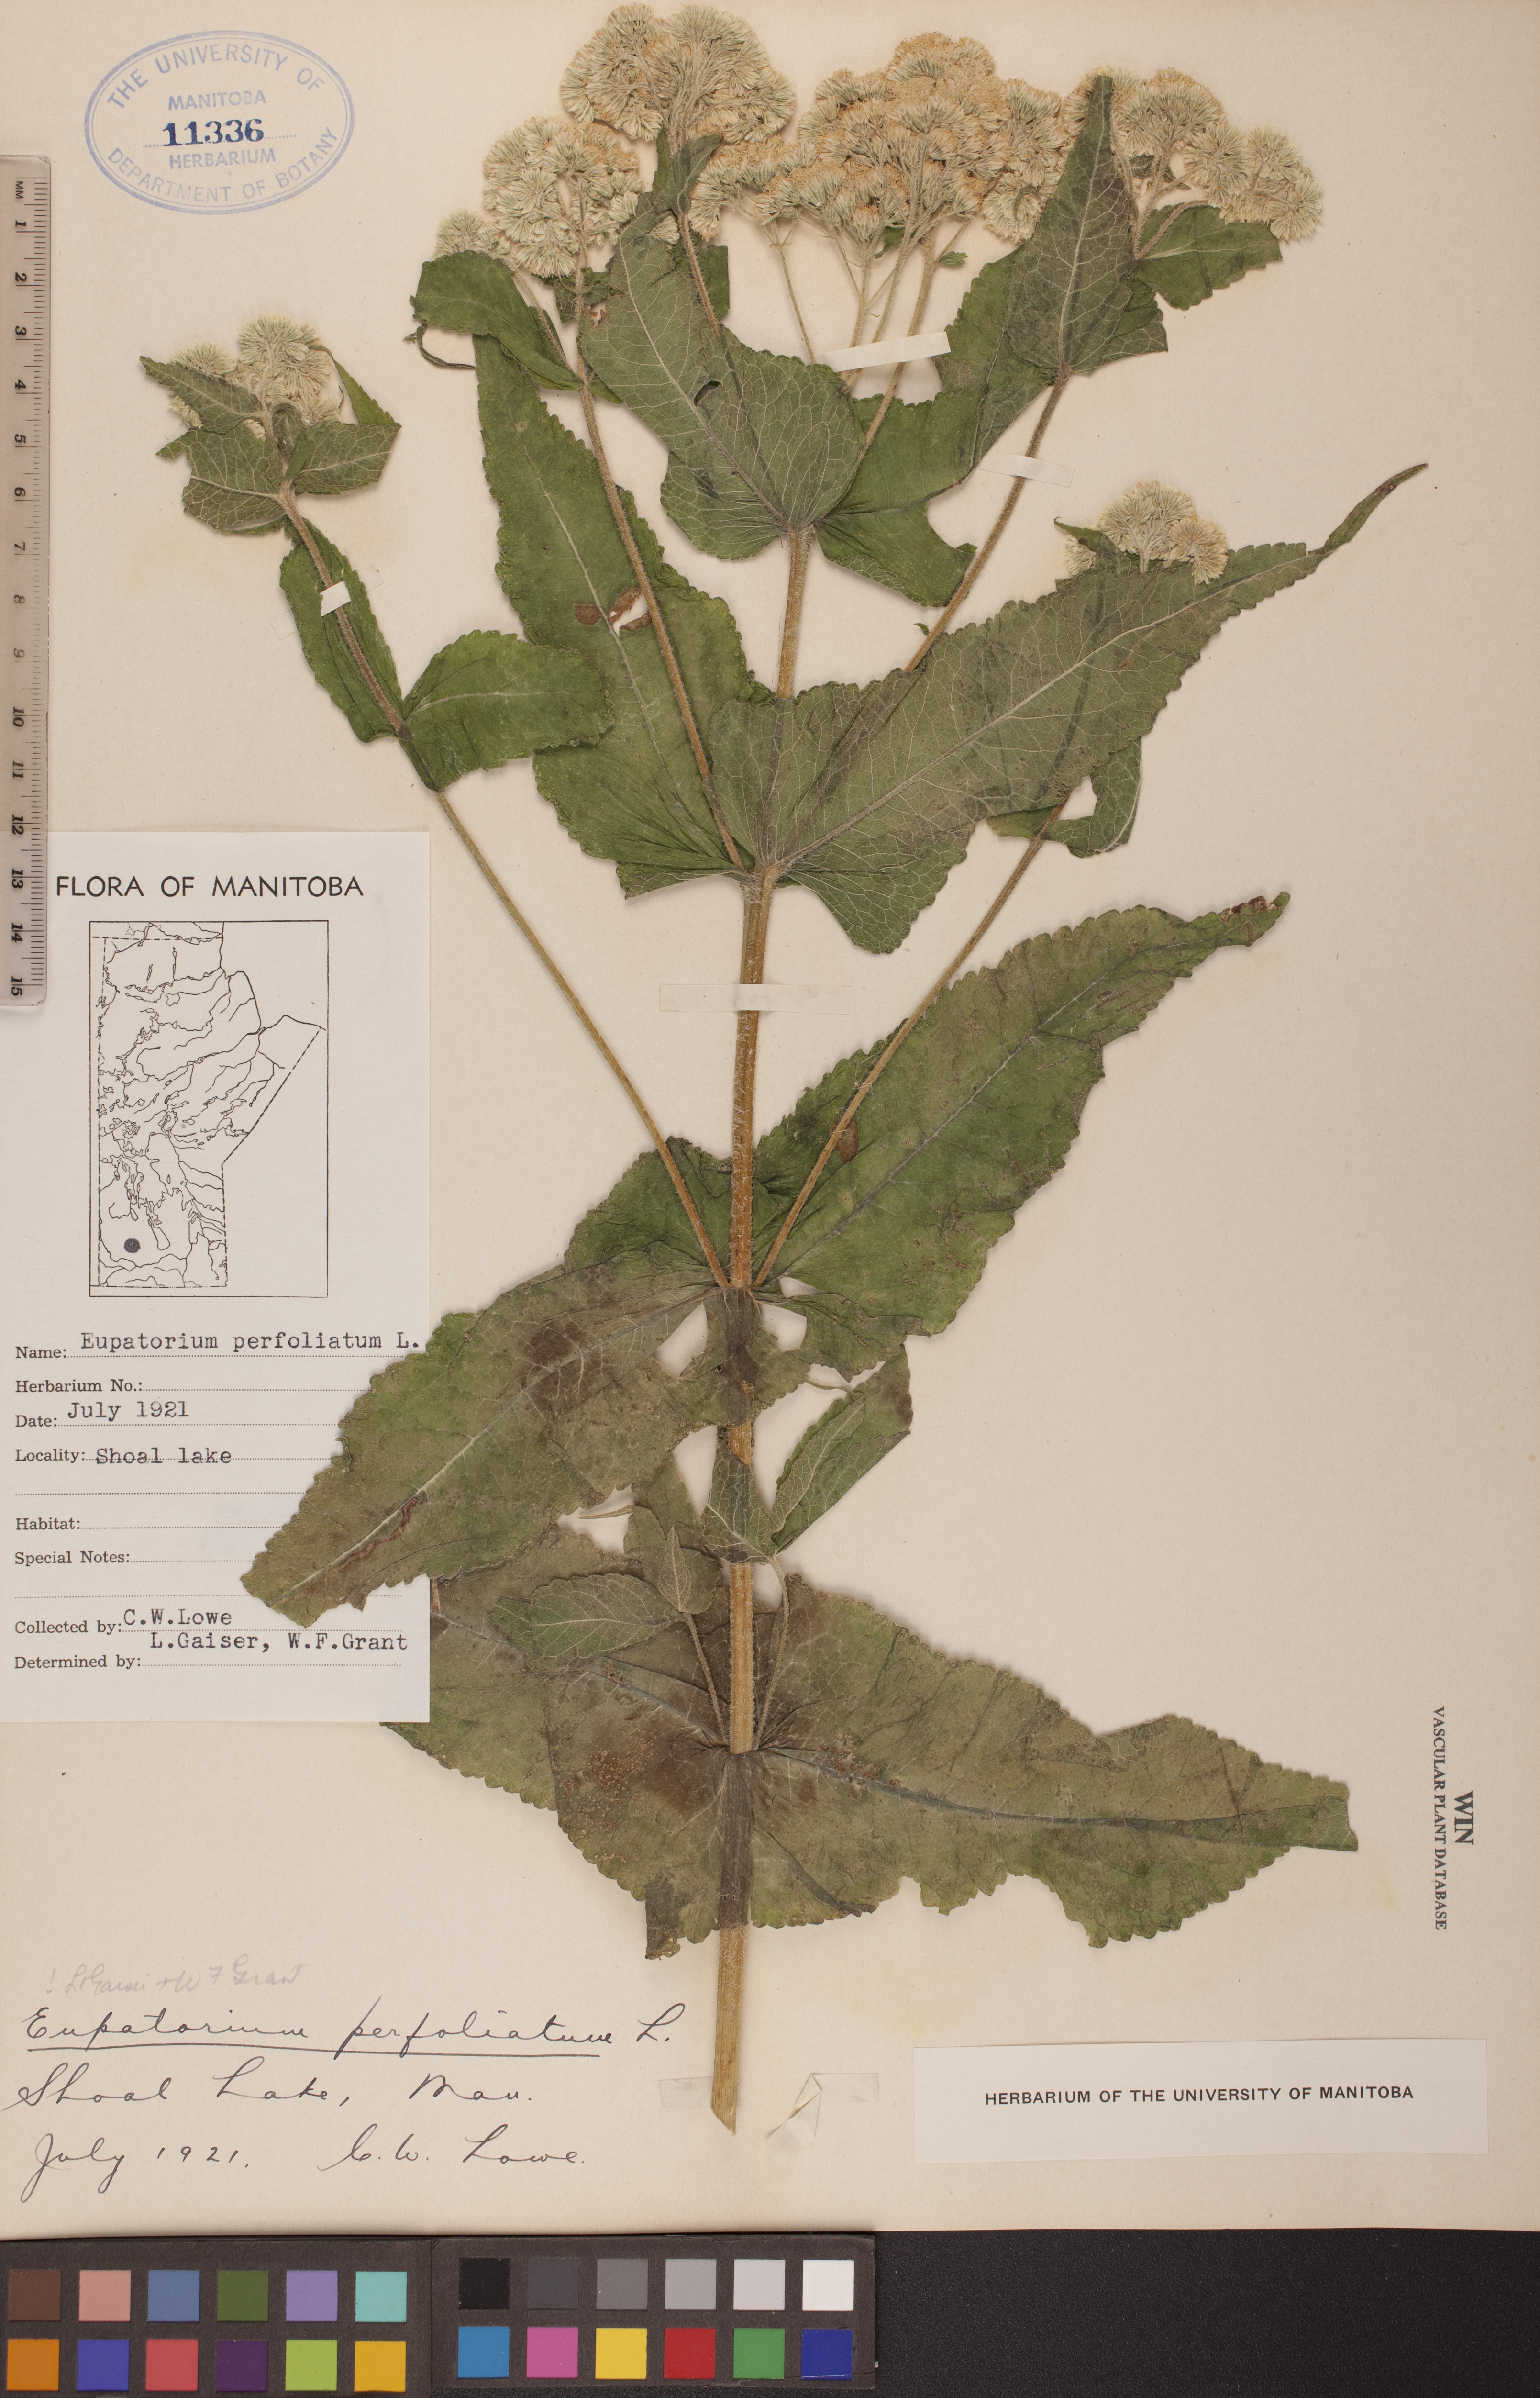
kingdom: Plantae
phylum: Tracheophyta
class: Magnoliopsida
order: Asterales
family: Asteraceae
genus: Eupatorium
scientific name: Eupatorium perfoliatum
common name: Boneset
